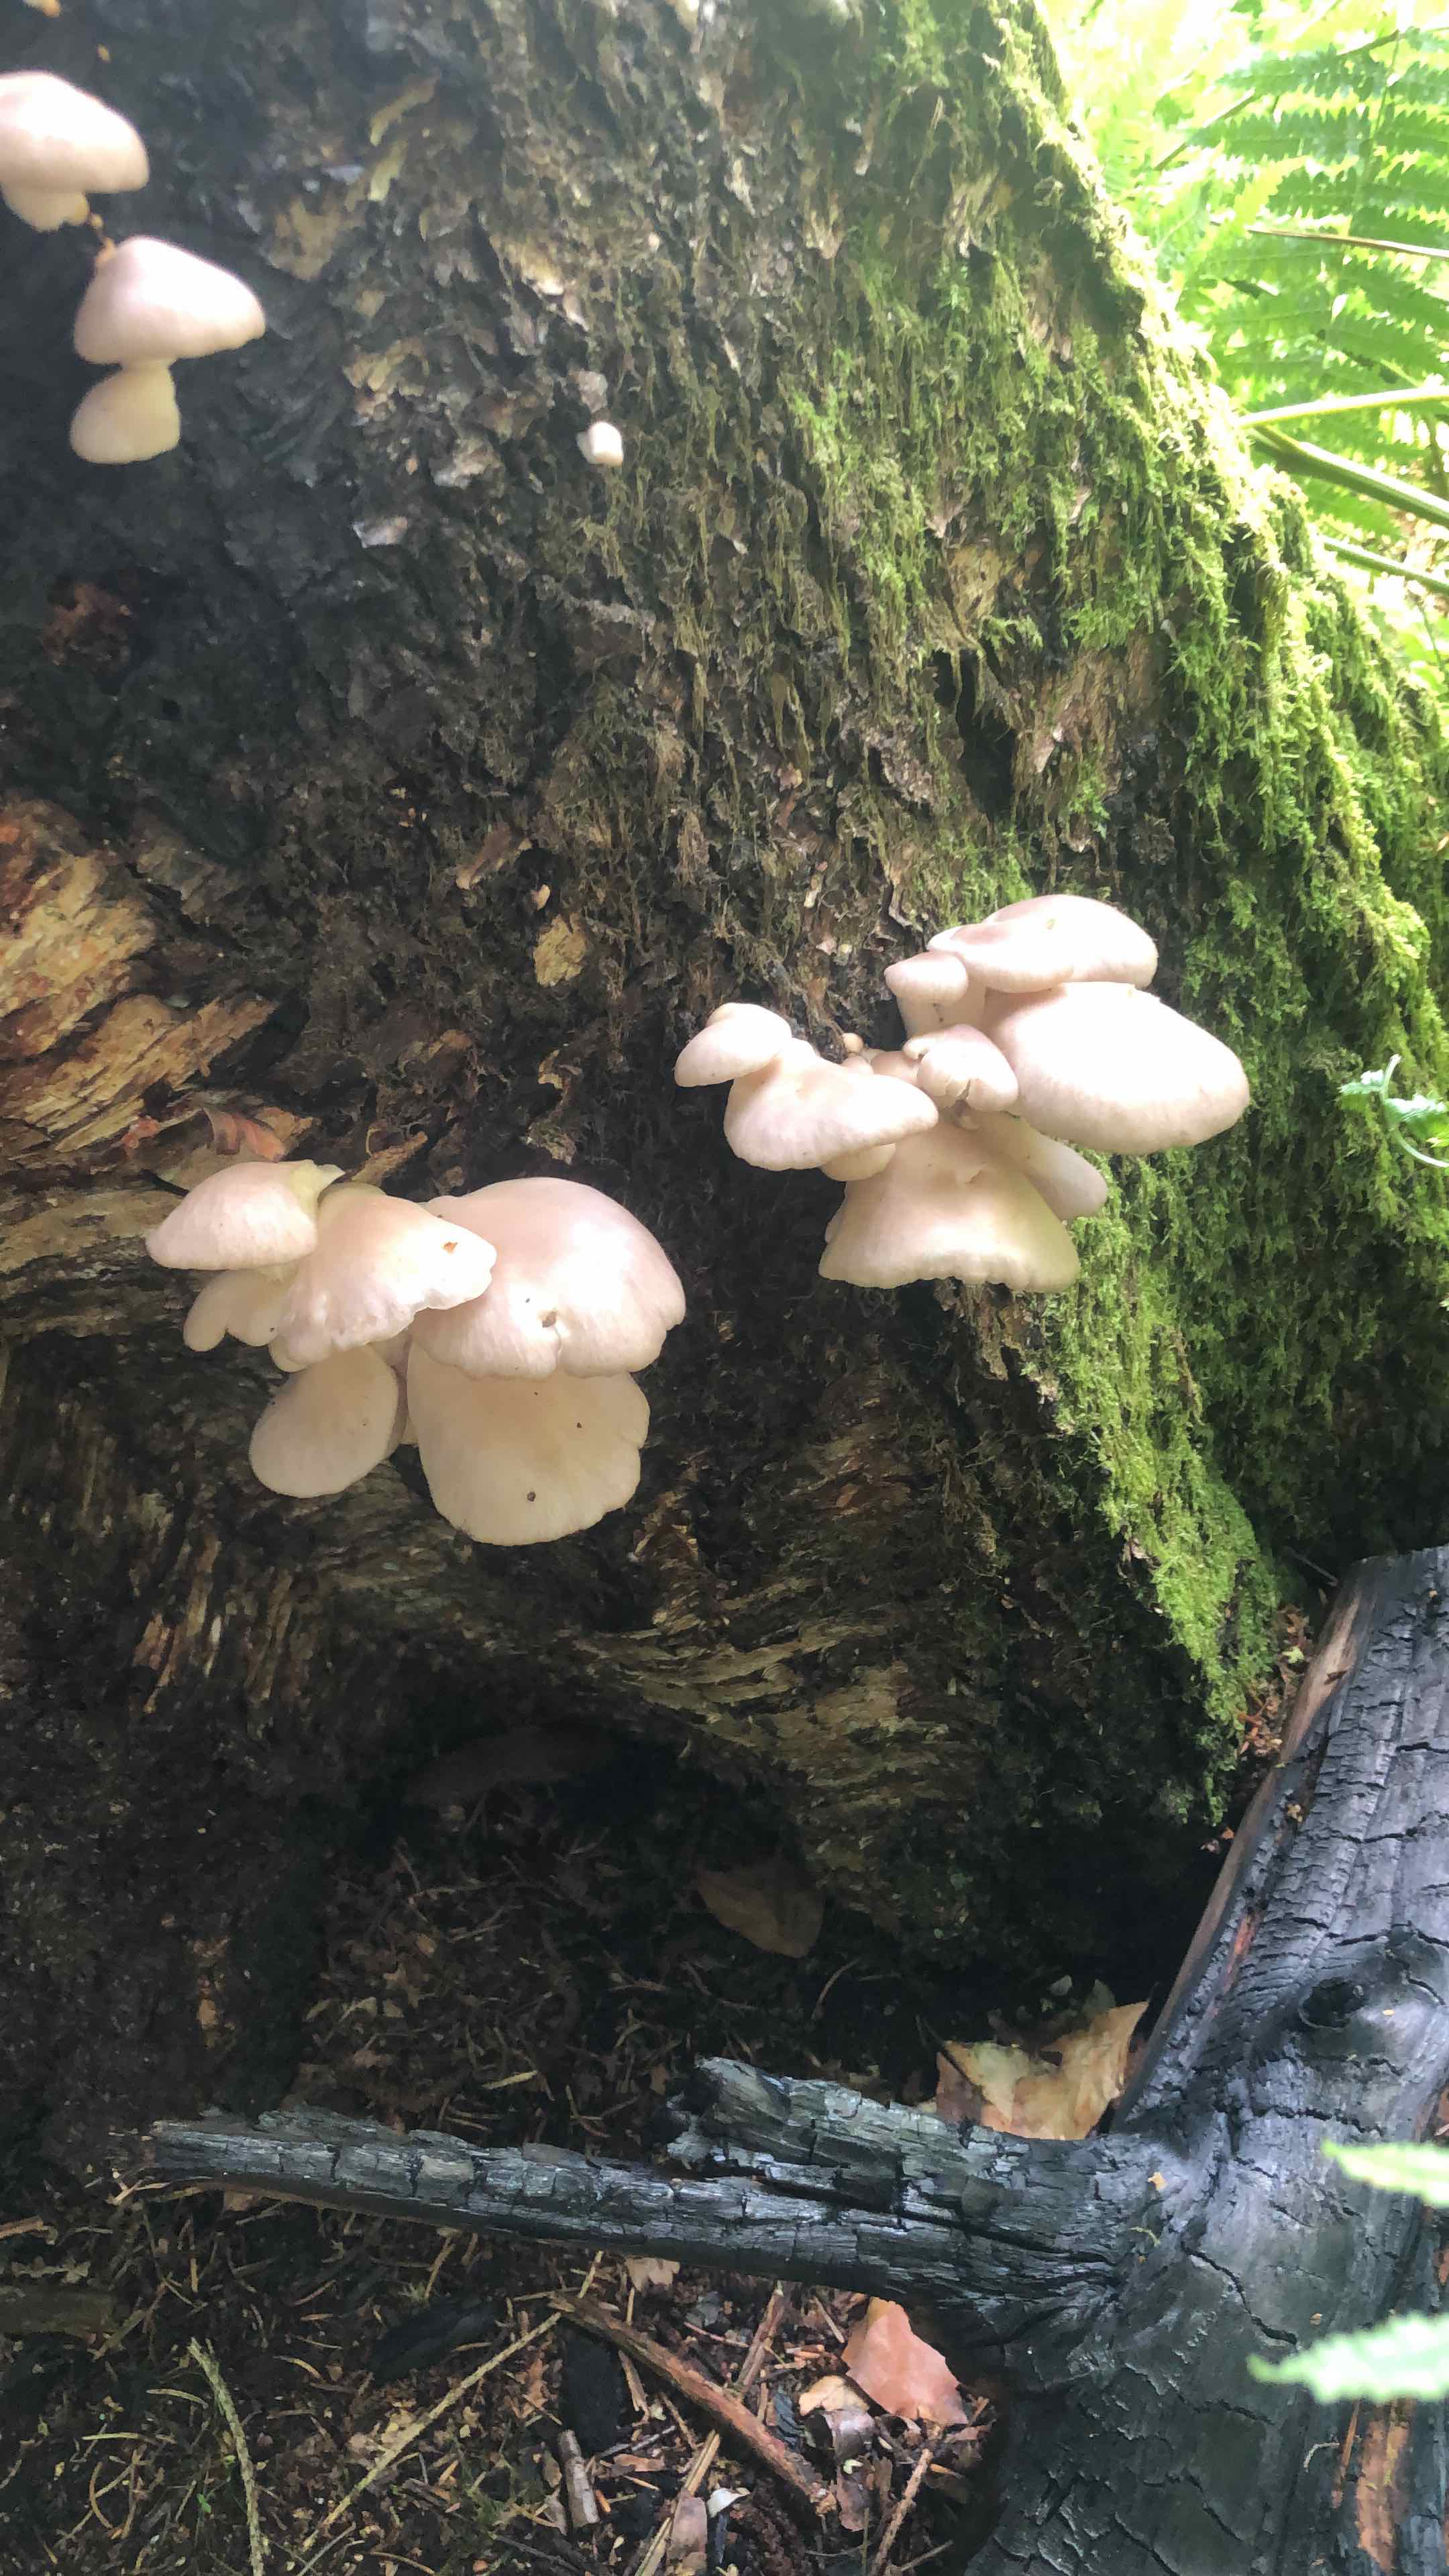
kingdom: Fungi
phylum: Basidiomycota
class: Agaricomycetes
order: Agaricales
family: Pleurotaceae
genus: Pleurotus
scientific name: Pleurotus pulmonarius
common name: sommer-østershat
